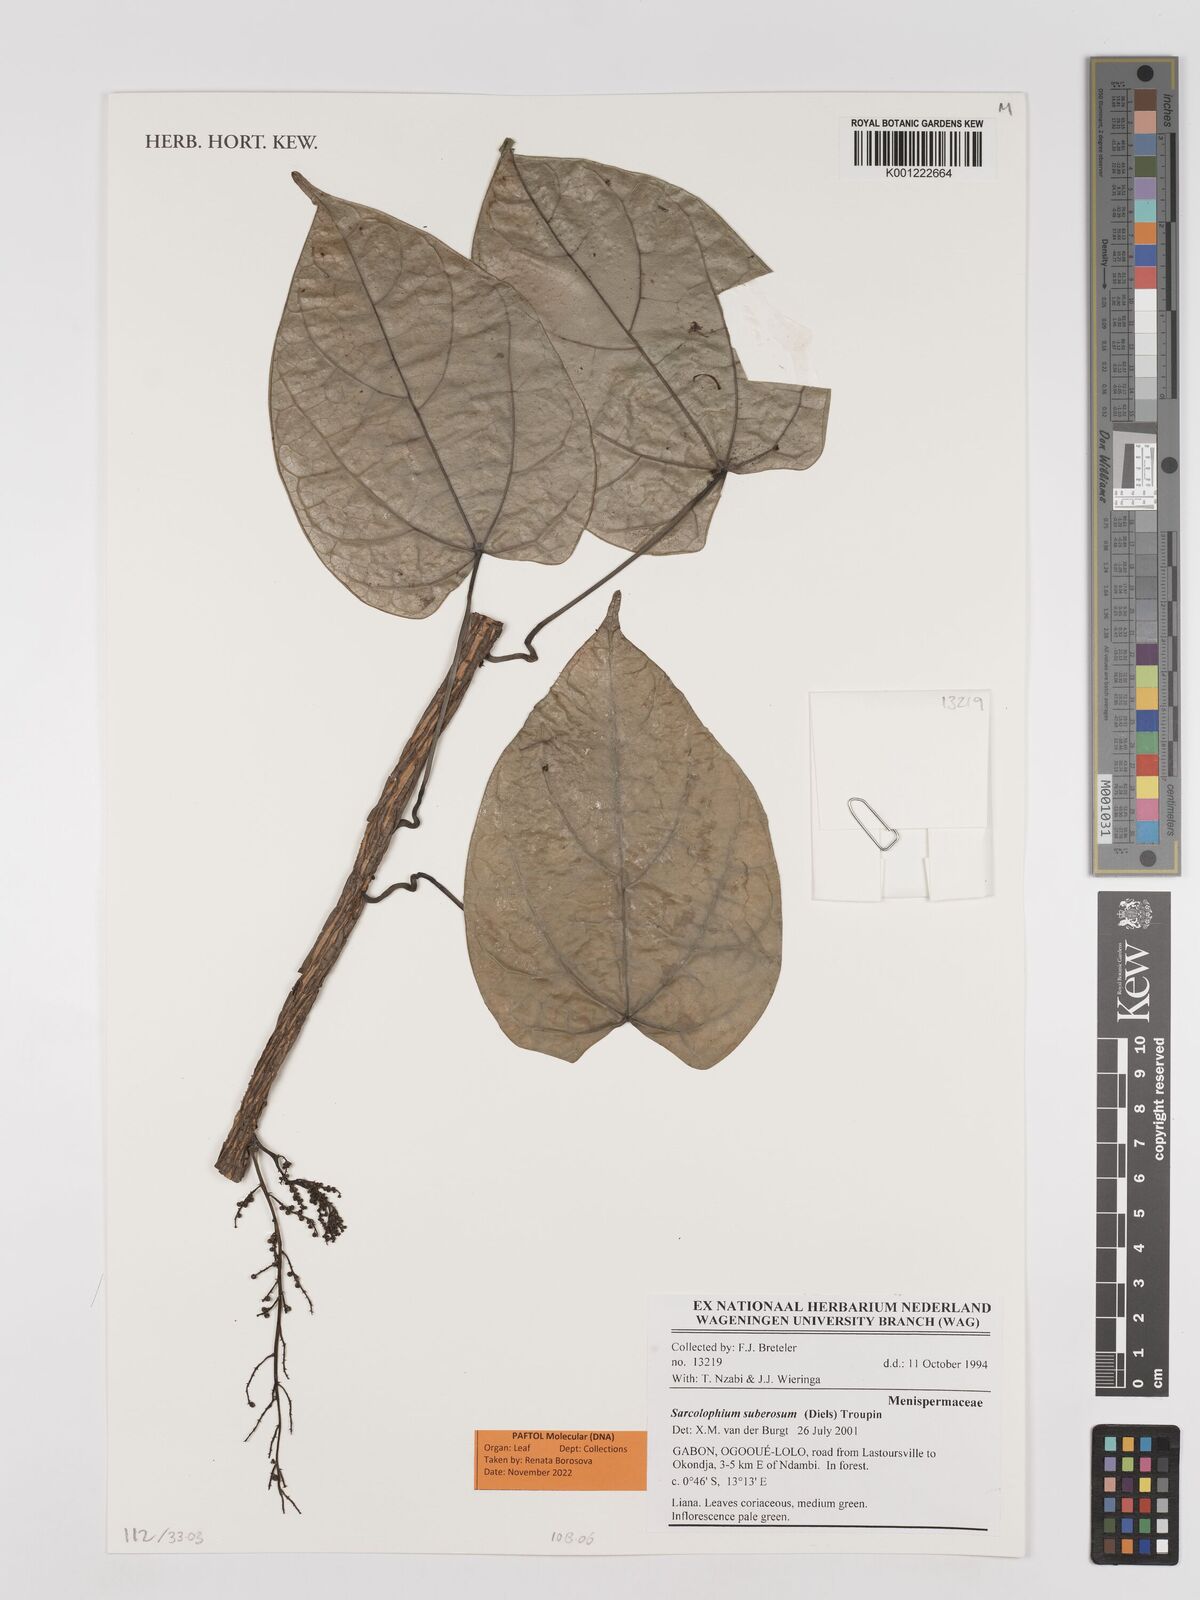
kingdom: Plantae
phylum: Tracheophyta
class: Magnoliopsida
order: Ranunculales
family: Menispermaceae
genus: Sarcolophium
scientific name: Sarcolophium suberosum
